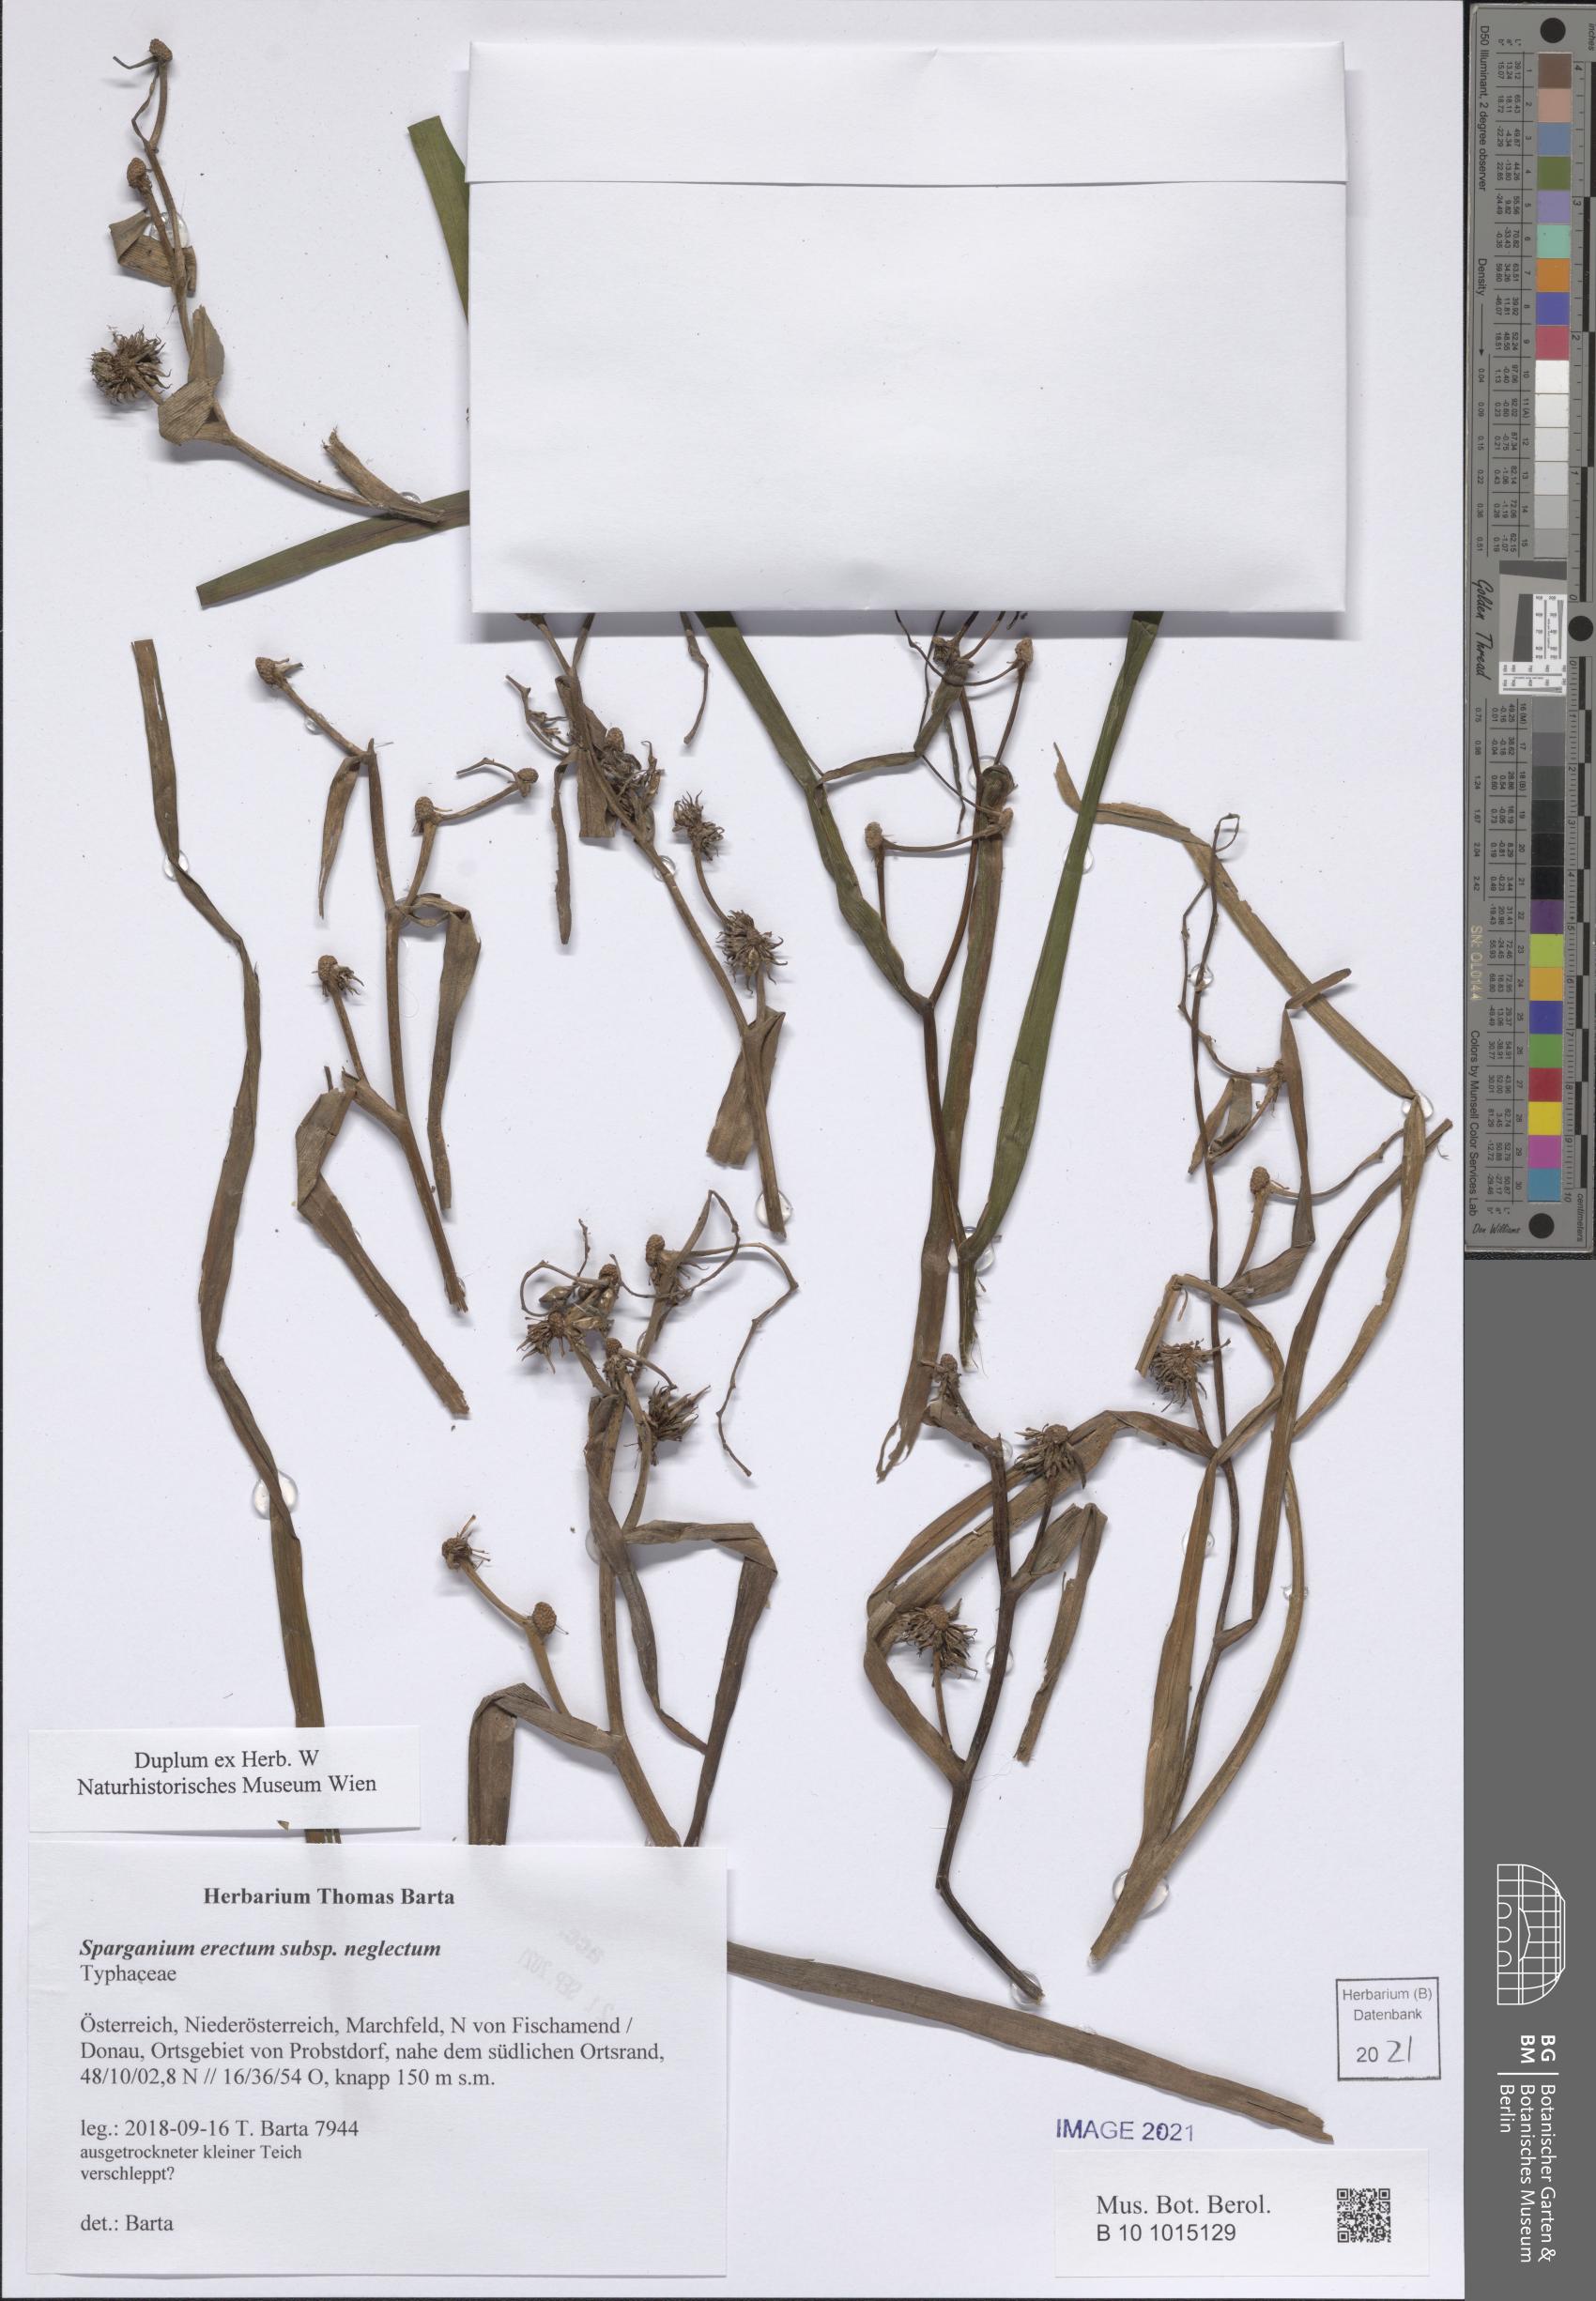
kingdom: Plantae
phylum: Tracheophyta
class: Liliopsida
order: Poales
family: Typhaceae
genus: Sparganium
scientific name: Sparganium erectum
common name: Branched bur-reed
